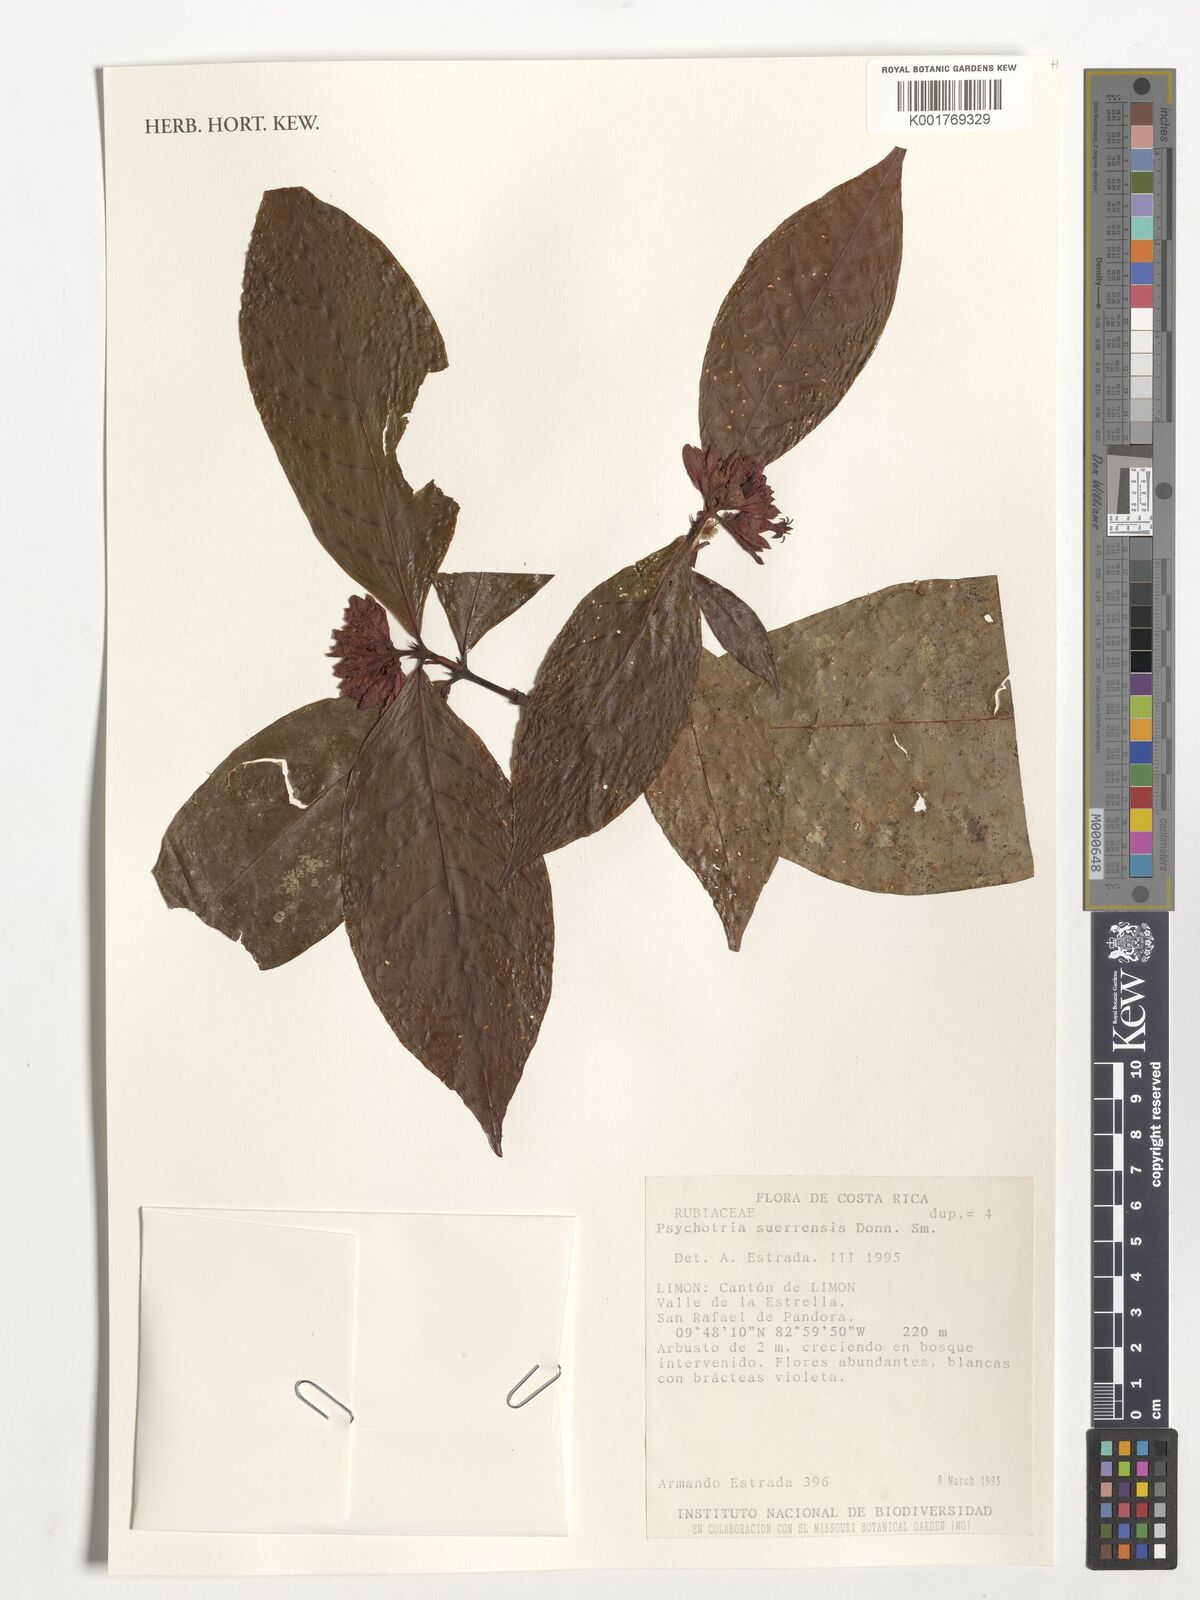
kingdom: Plantae
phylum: Tracheophyta
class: Magnoliopsida
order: Gentianales
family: Rubiaceae
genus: Palicourea
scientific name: Palicourea suerrensis
